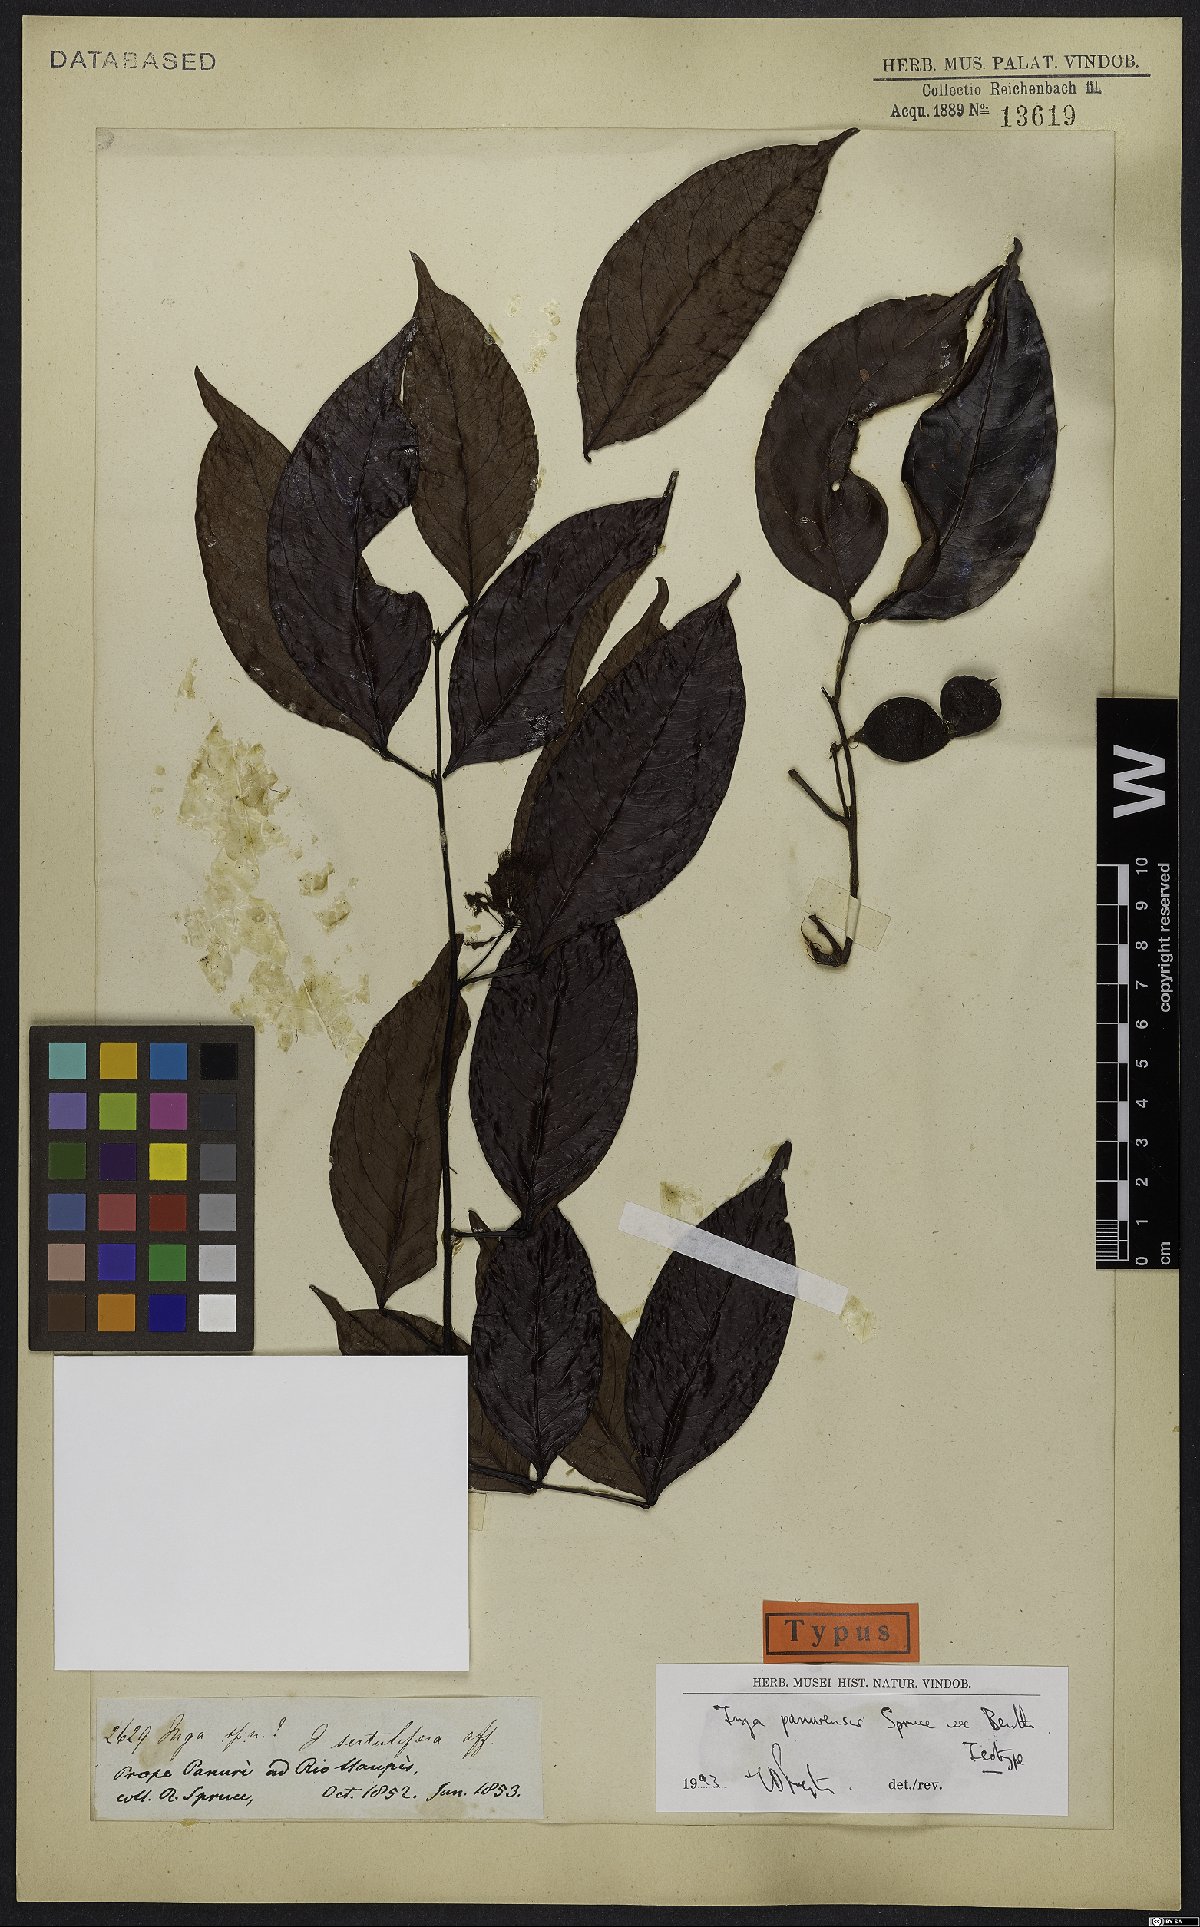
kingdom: Plantae
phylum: Tracheophyta
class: Magnoliopsida
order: Fabales
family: Fabaceae
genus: Inga
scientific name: Inga panurensis
